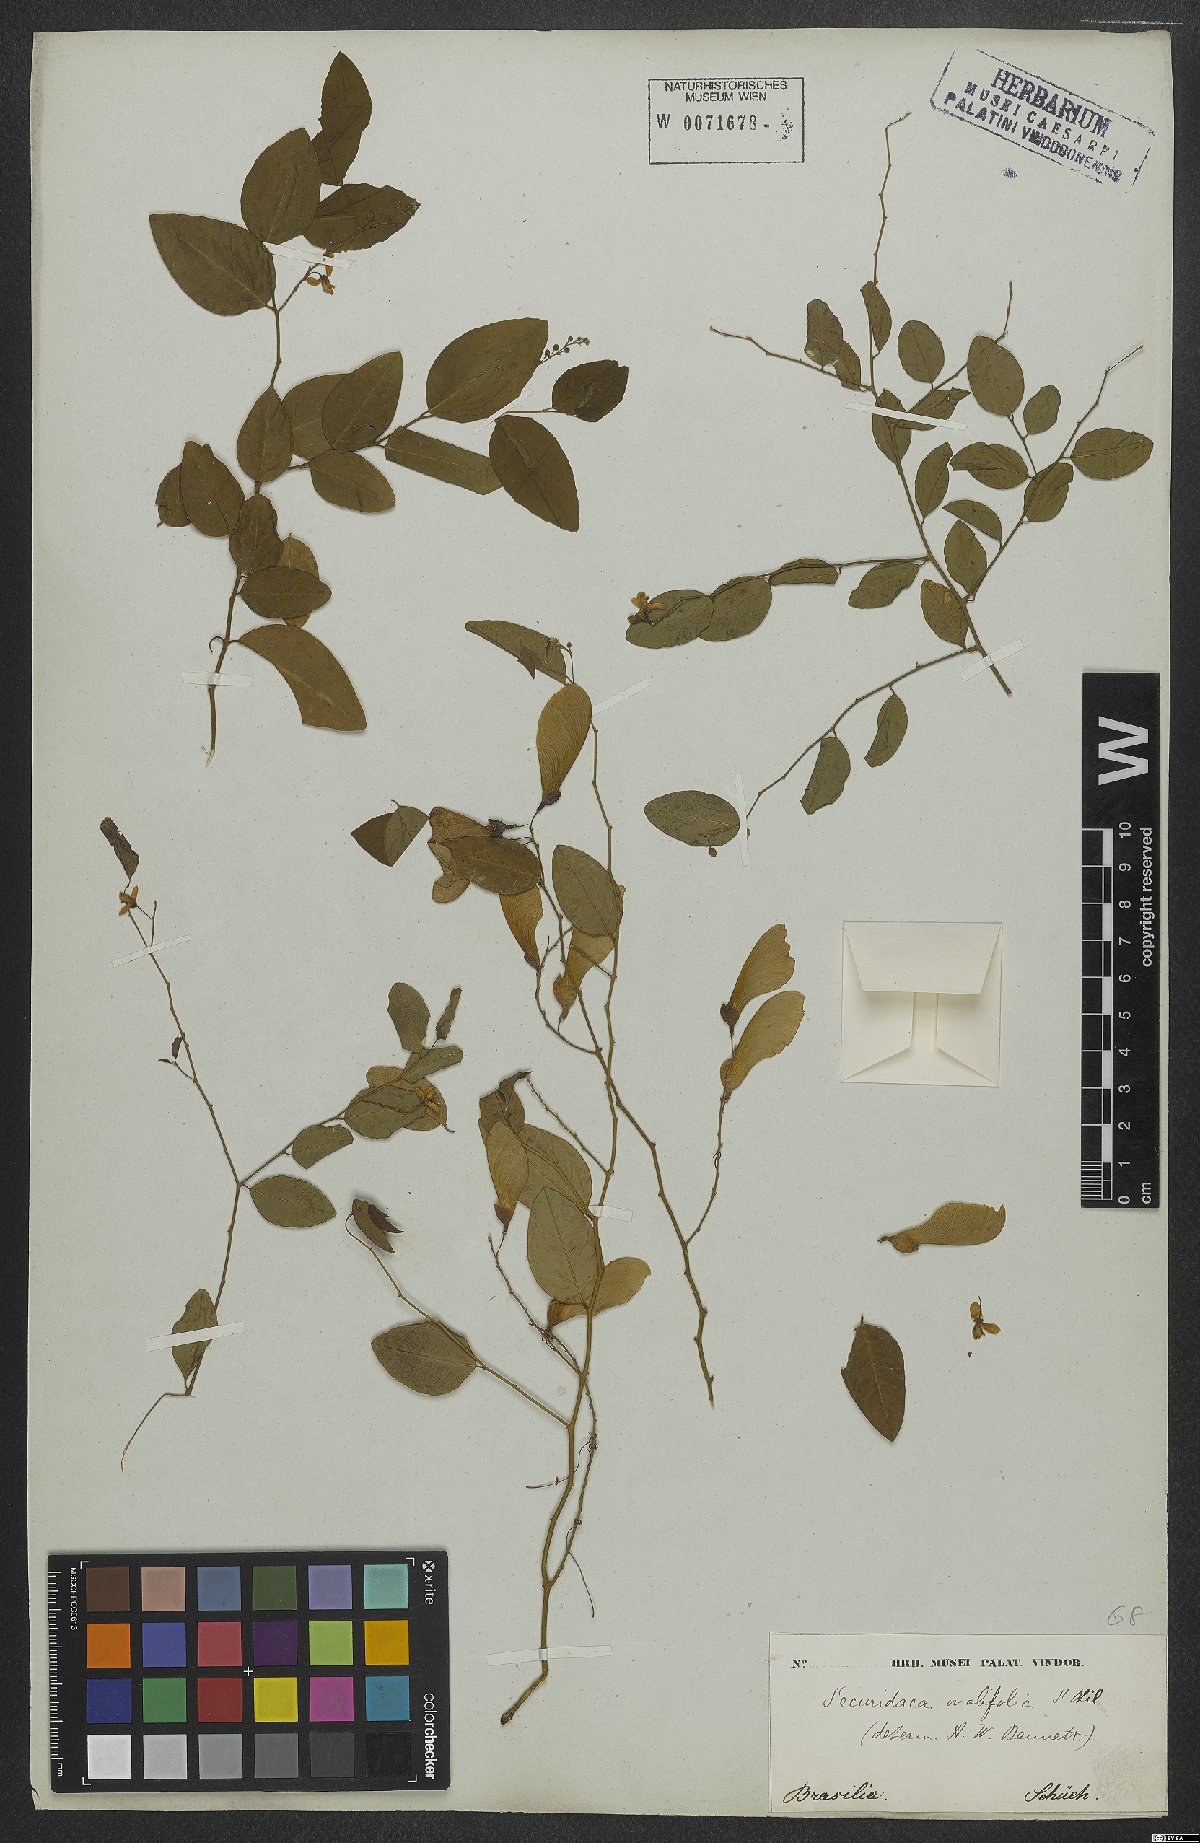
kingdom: Plantae
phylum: Tracheophyta
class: Magnoliopsida
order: Fabales
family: Polygalaceae
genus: Securidaca
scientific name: Securidaca ovalifolia
